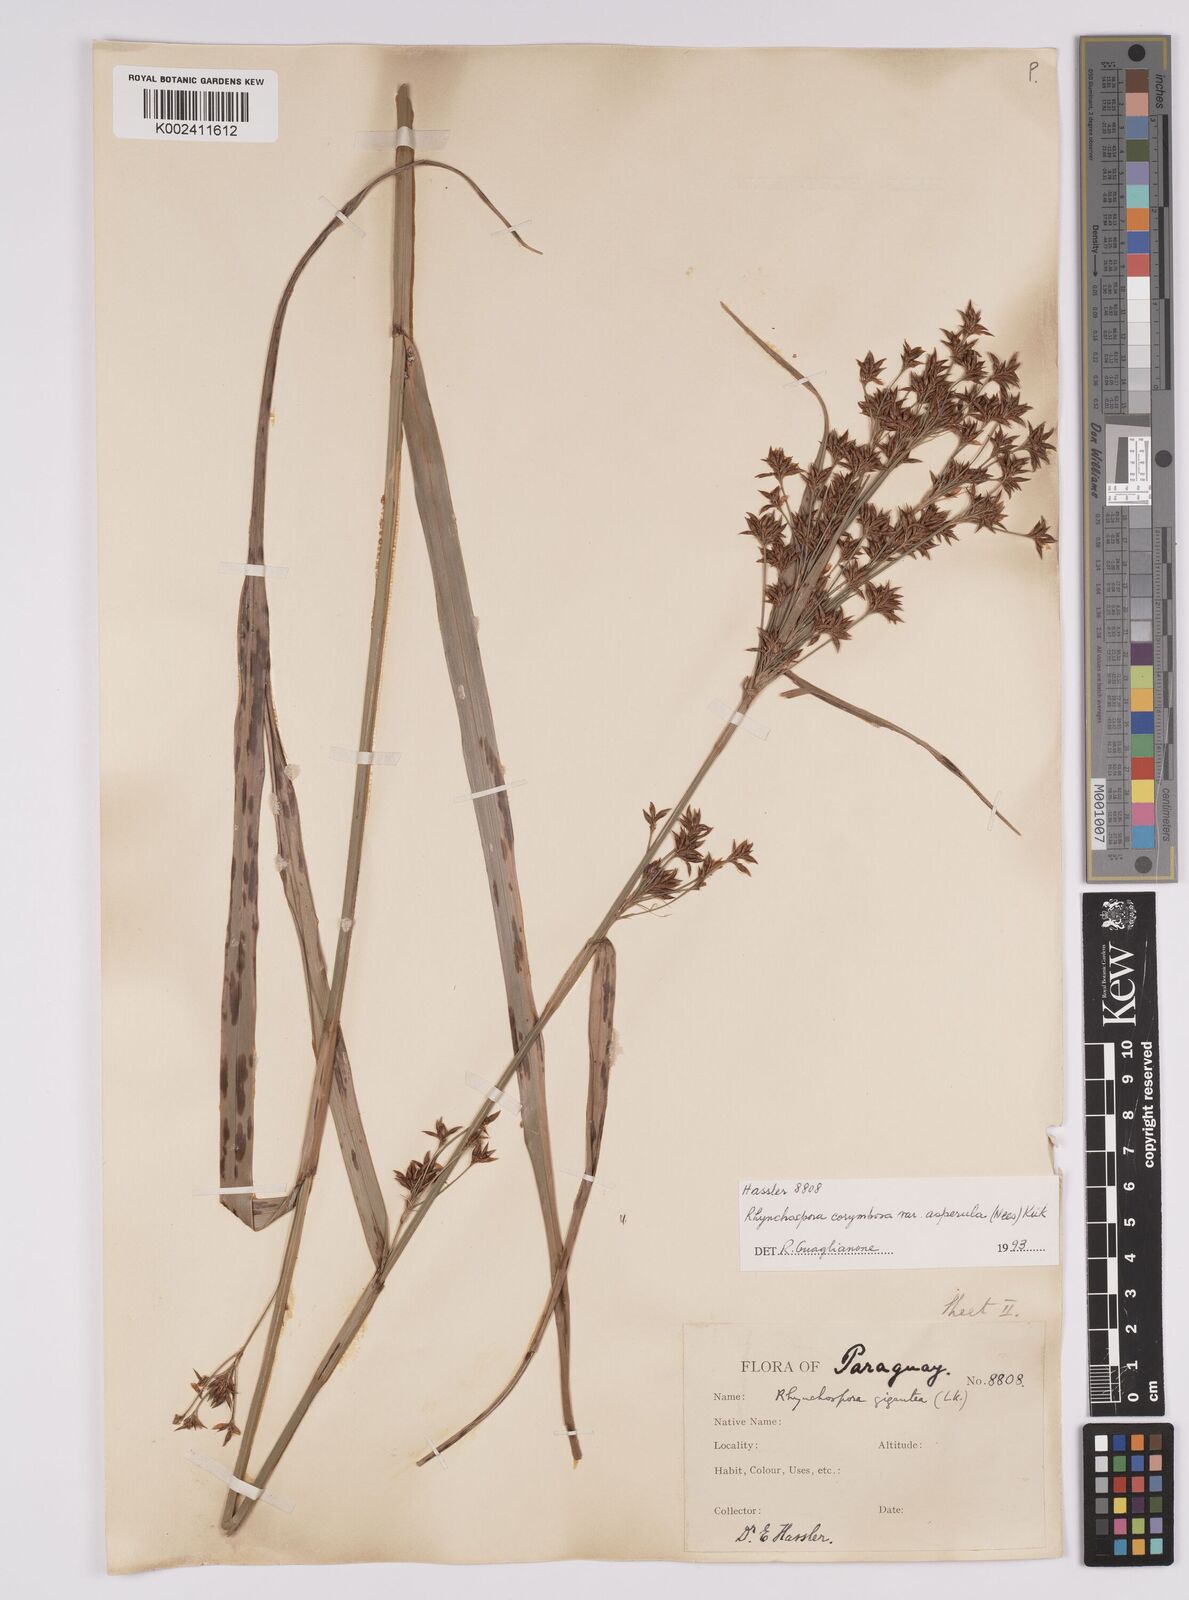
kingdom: Plantae
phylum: Tracheophyta
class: Liliopsida
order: Poales
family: Cyperaceae
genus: Rhynchospora
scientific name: Rhynchospora asperula
